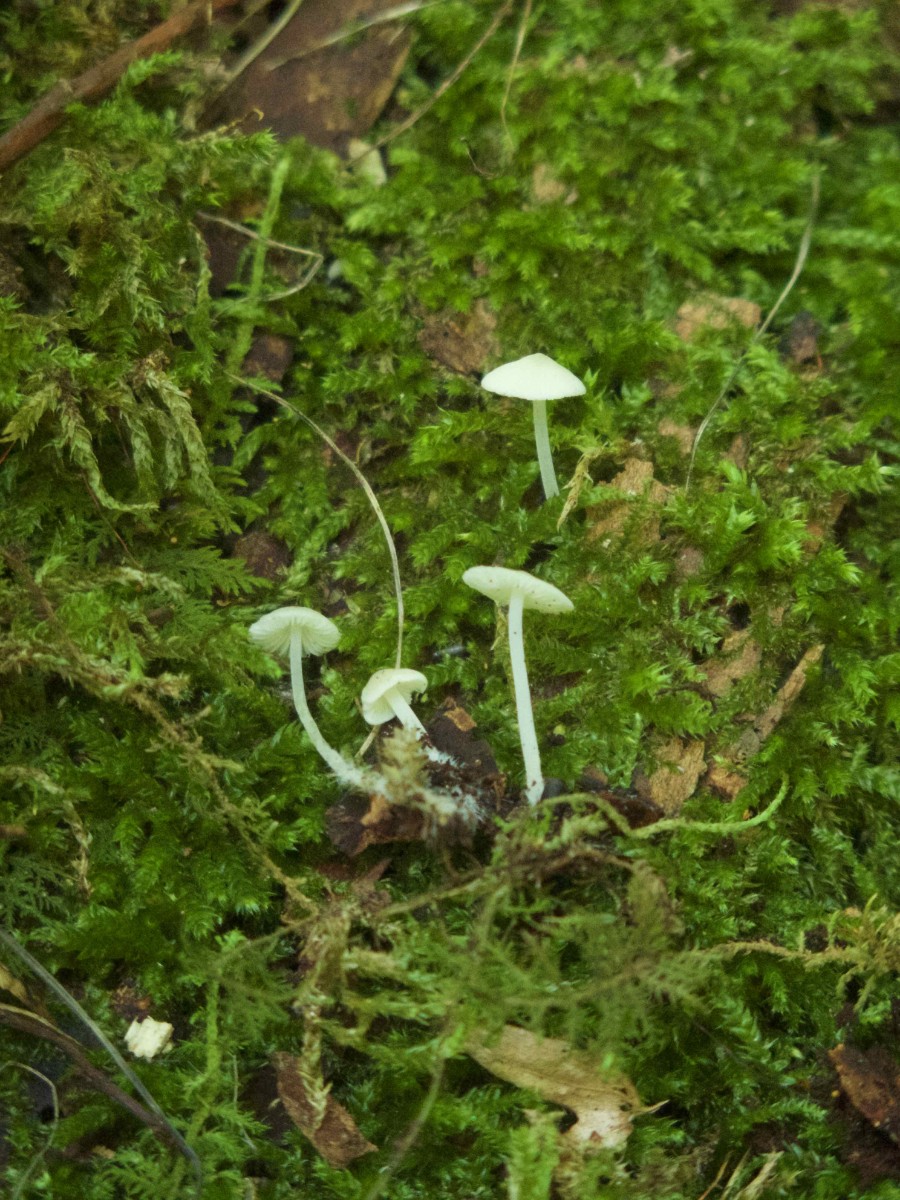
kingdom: Fungi
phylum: Basidiomycota
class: Agaricomycetes
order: Agaricales
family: Porotheleaceae
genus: Phloeomana
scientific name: Phloeomana minutula
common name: bleg huesvamp
